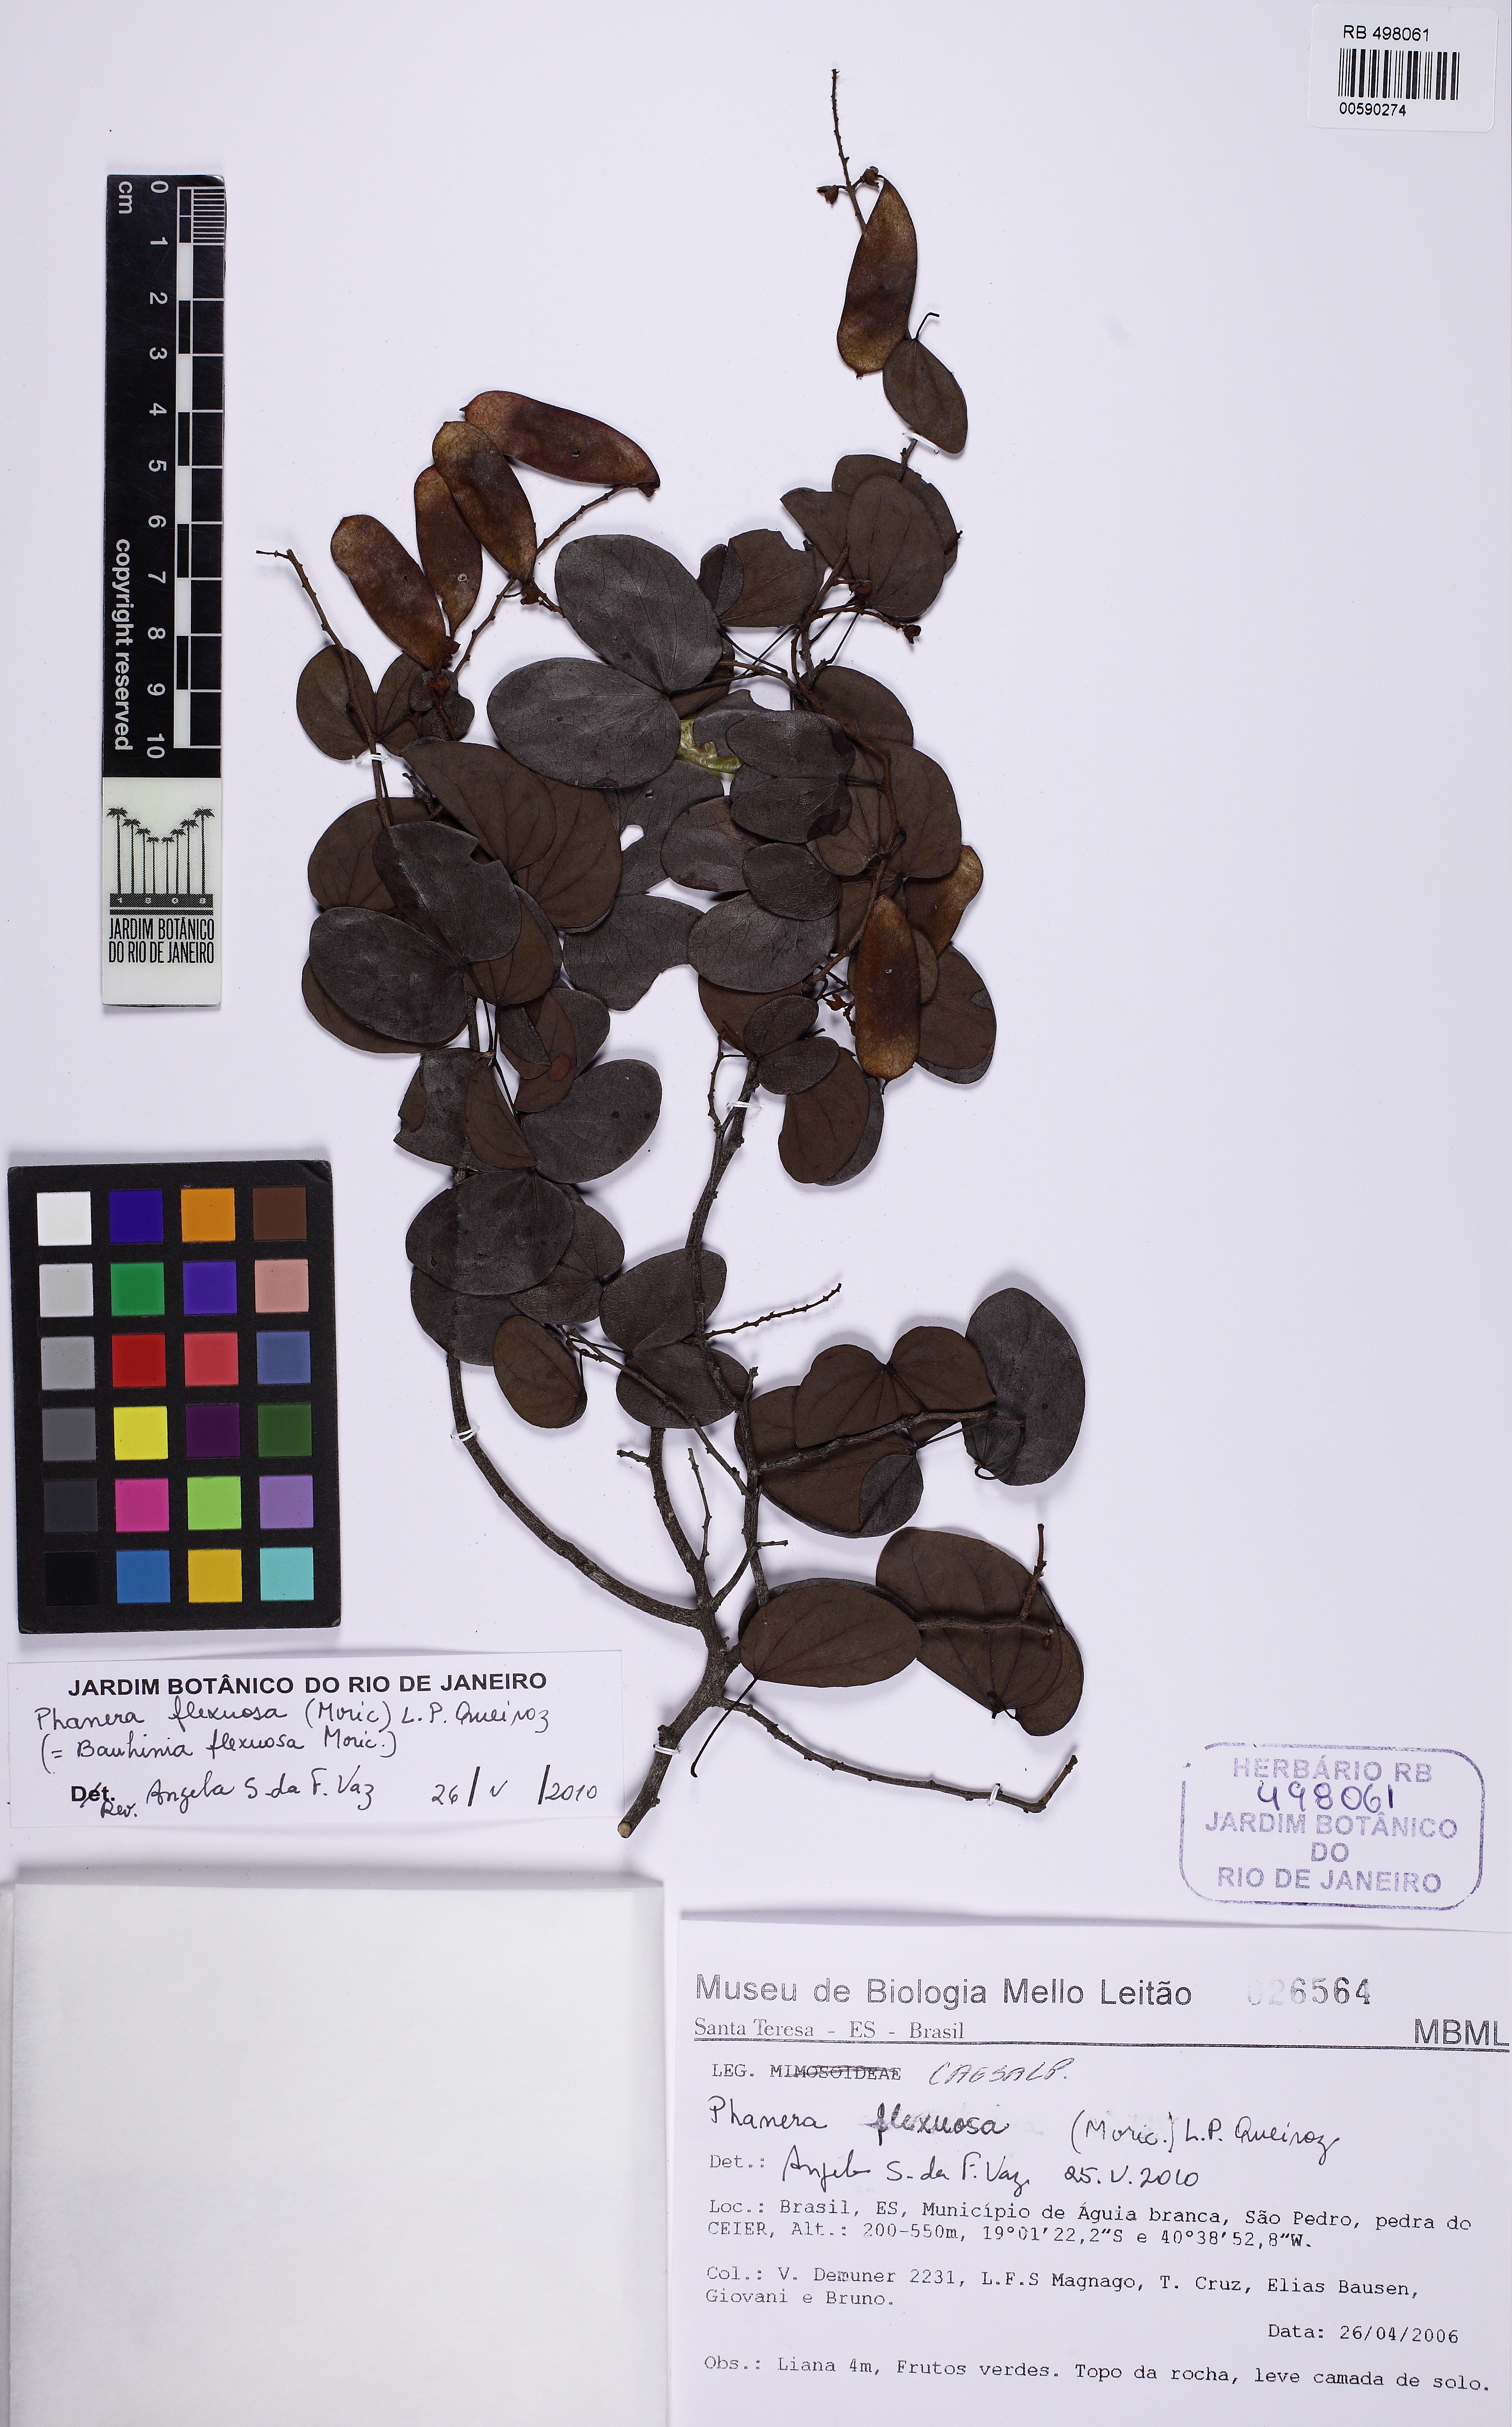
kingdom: Plantae
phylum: Tracheophyta
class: Magnoliopsida
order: Fabales
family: Fabaceae
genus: Schnella
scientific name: Schnella flexuosa
